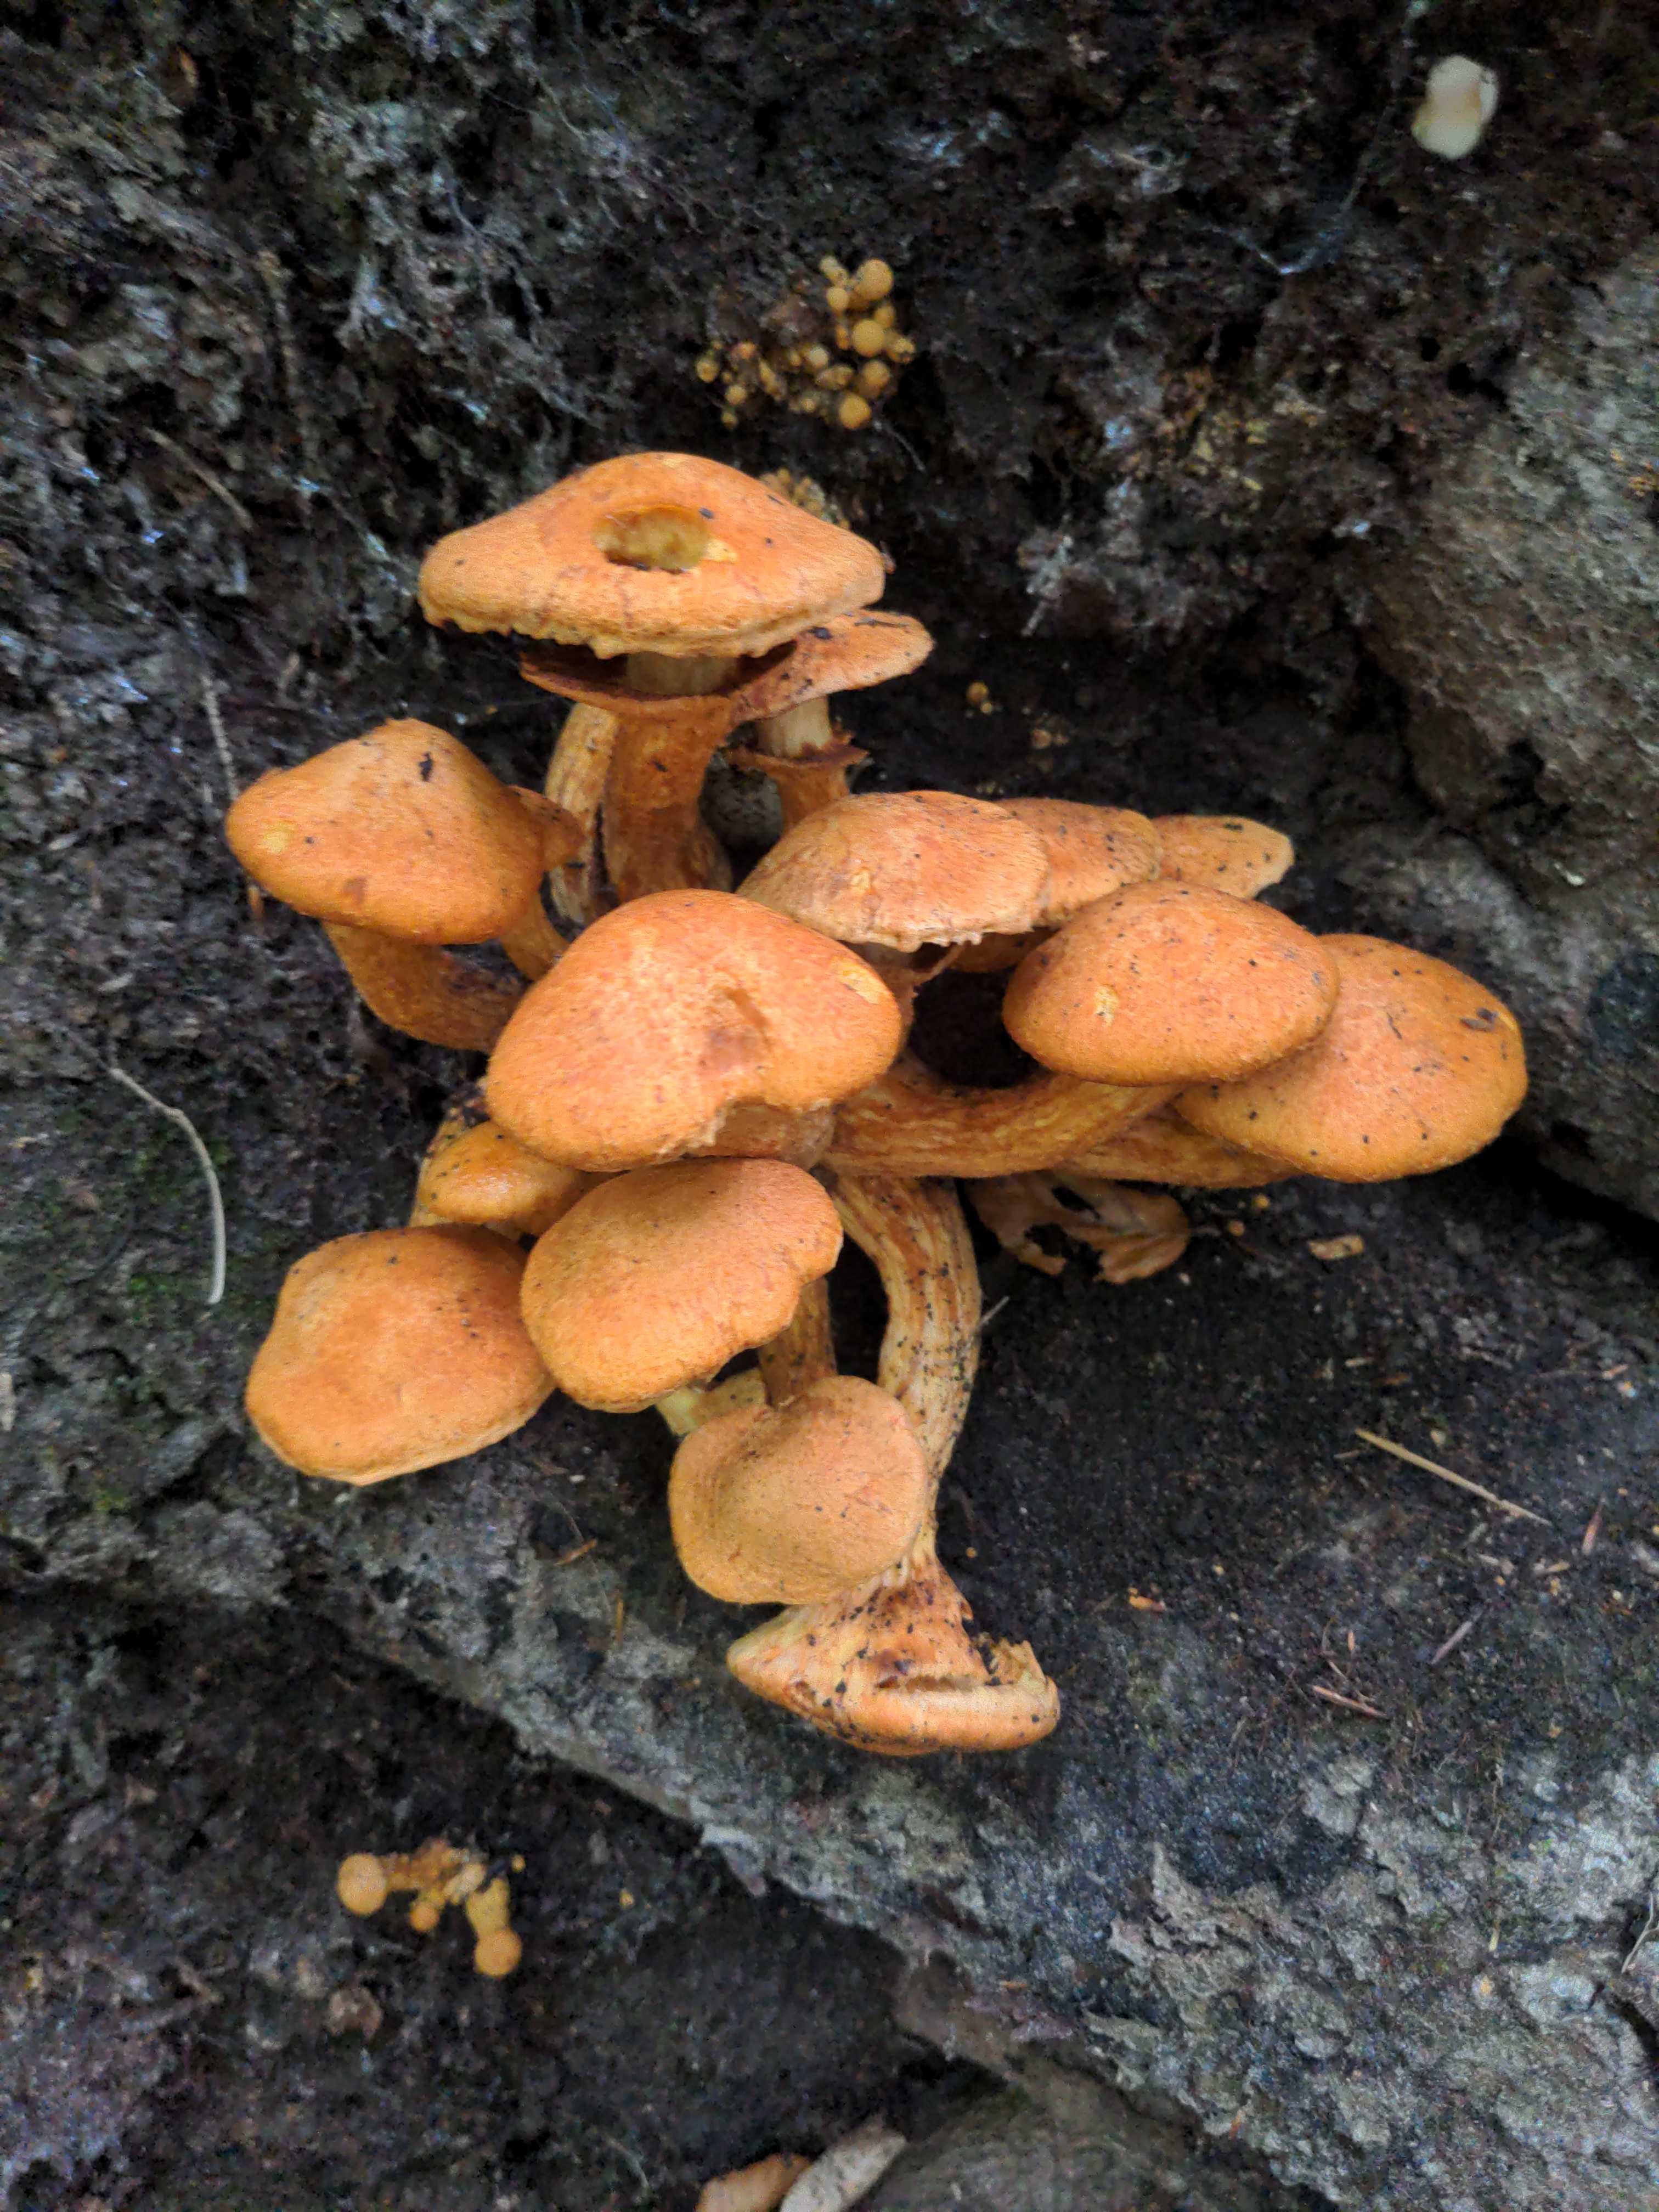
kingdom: Fungi
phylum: Basidiomycota
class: Agaricomycetes
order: Agaricales
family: Hymenogastraceae
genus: Gymnopilus
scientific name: Gymnopilus spectabilis
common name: fibret flammehat
